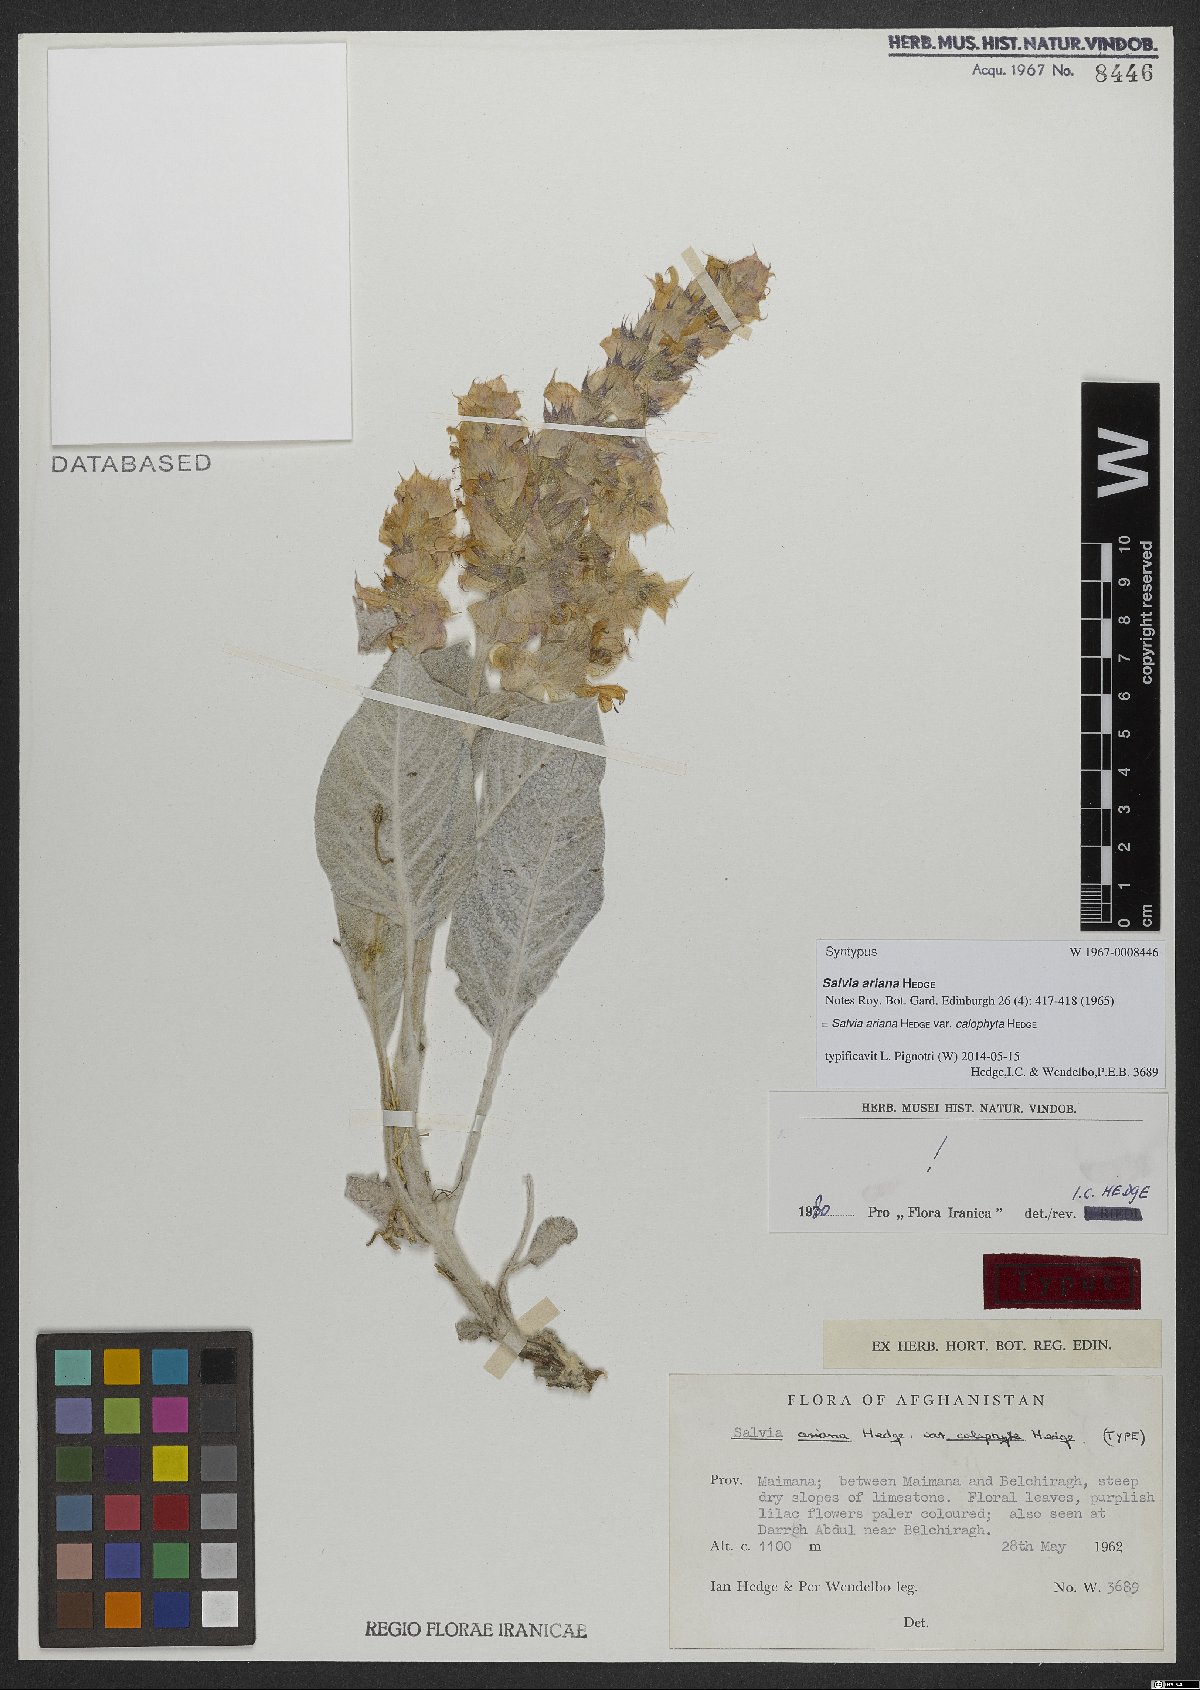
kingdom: Plantae
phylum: Tracheophyta
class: Magnoliopsida
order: Lamiales
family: Lamiaceae
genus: Salvia
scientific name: Salvia ariana
